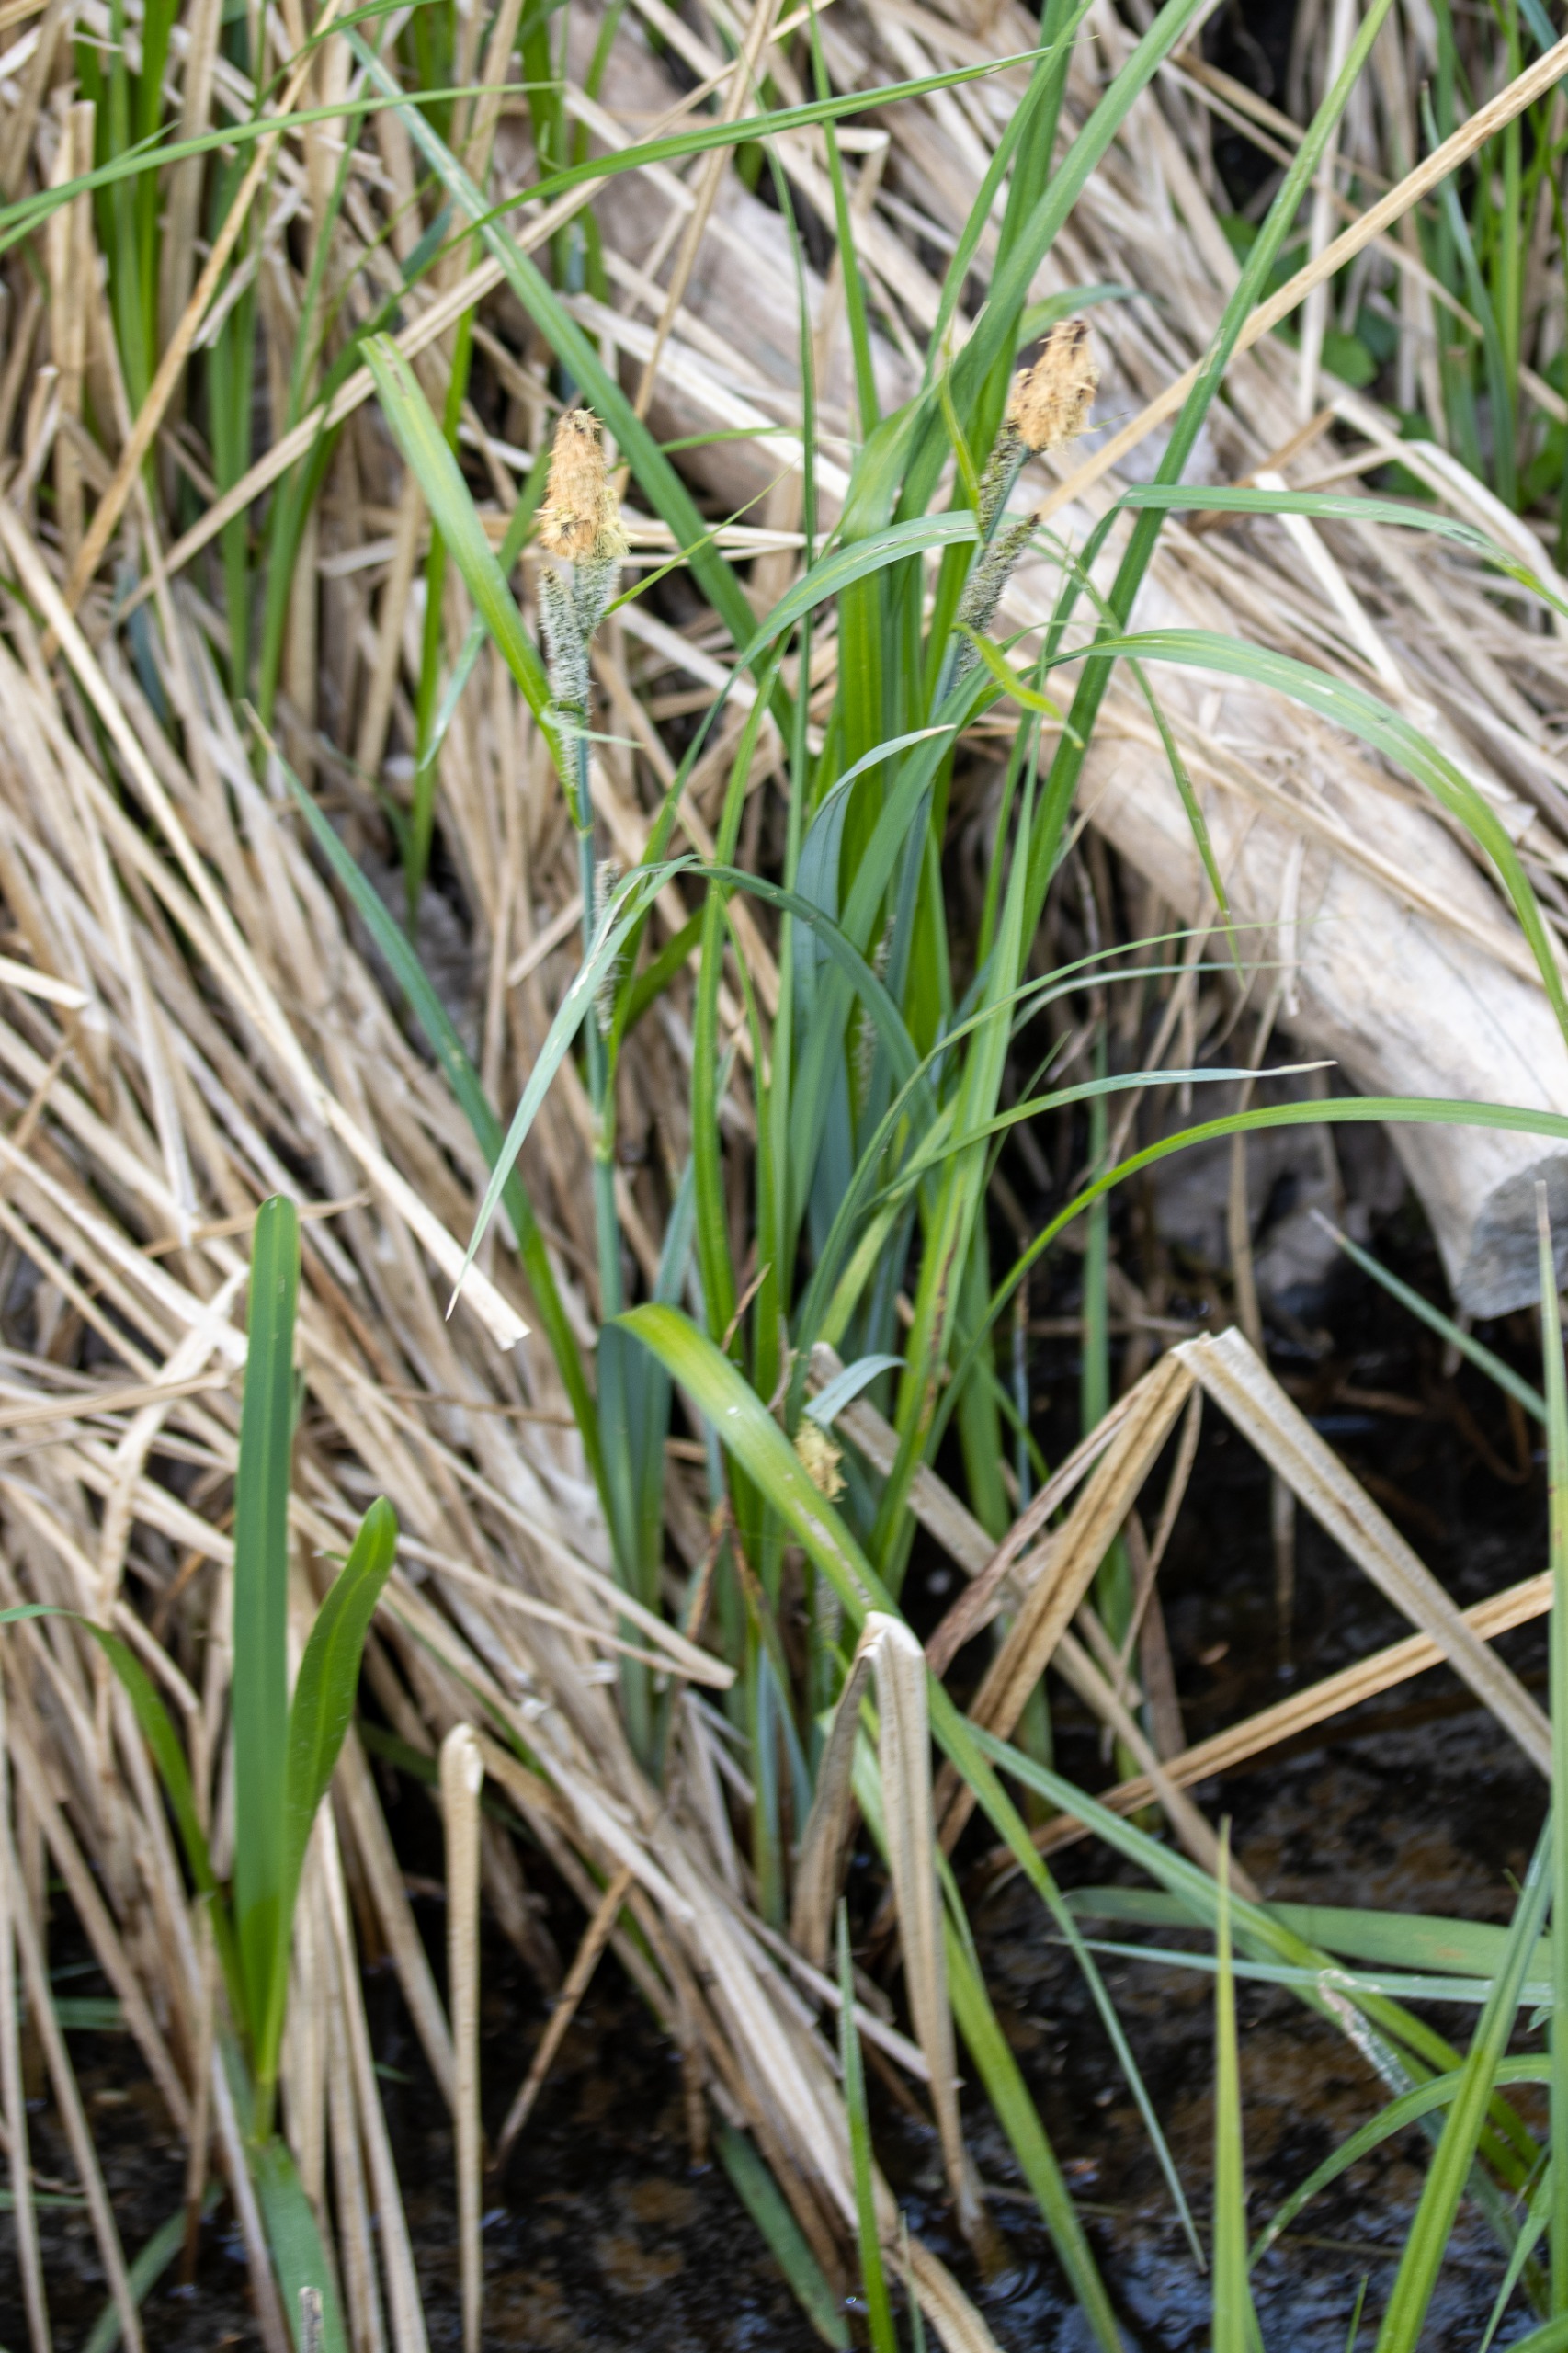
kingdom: Plantae
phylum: Tracheophyta
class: Liliopsida
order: Poales
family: Cyperaceae
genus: Carex
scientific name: Carex acutiformis
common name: Kær-star
